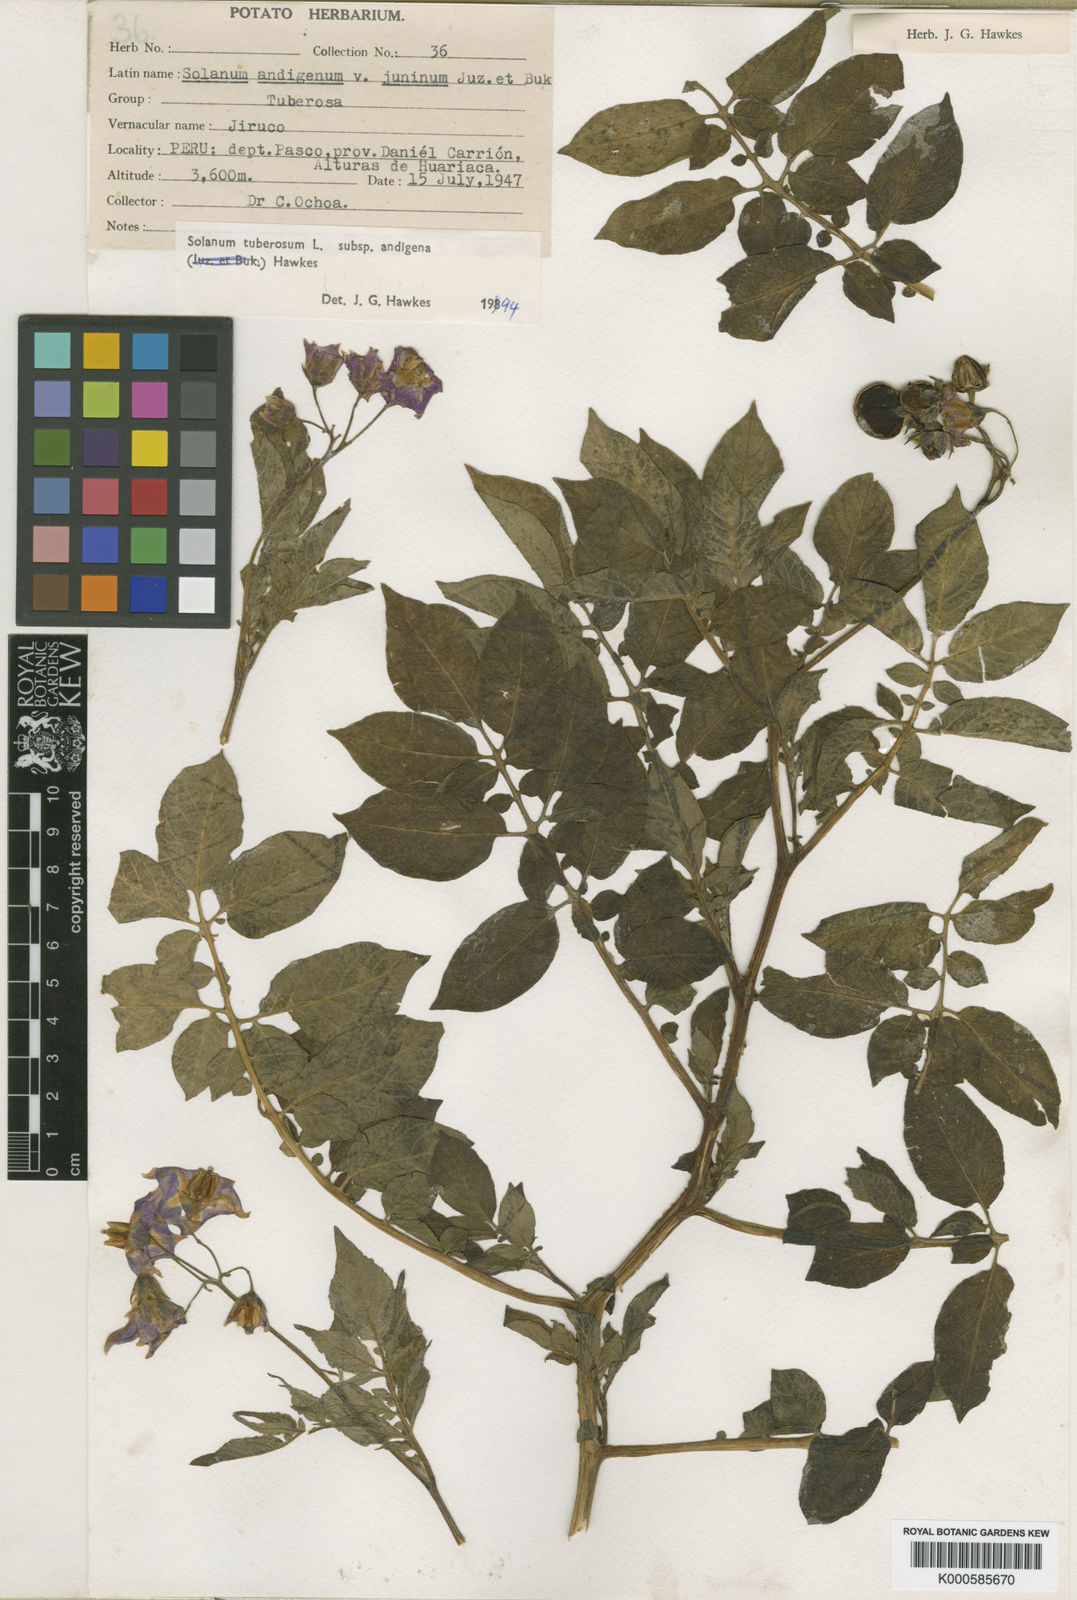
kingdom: Plantae
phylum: Tracheophyta
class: Magnoliopsida
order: Solanales
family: Solanaceae
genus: Solanum
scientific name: Solanum tuberosum
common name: Potato
